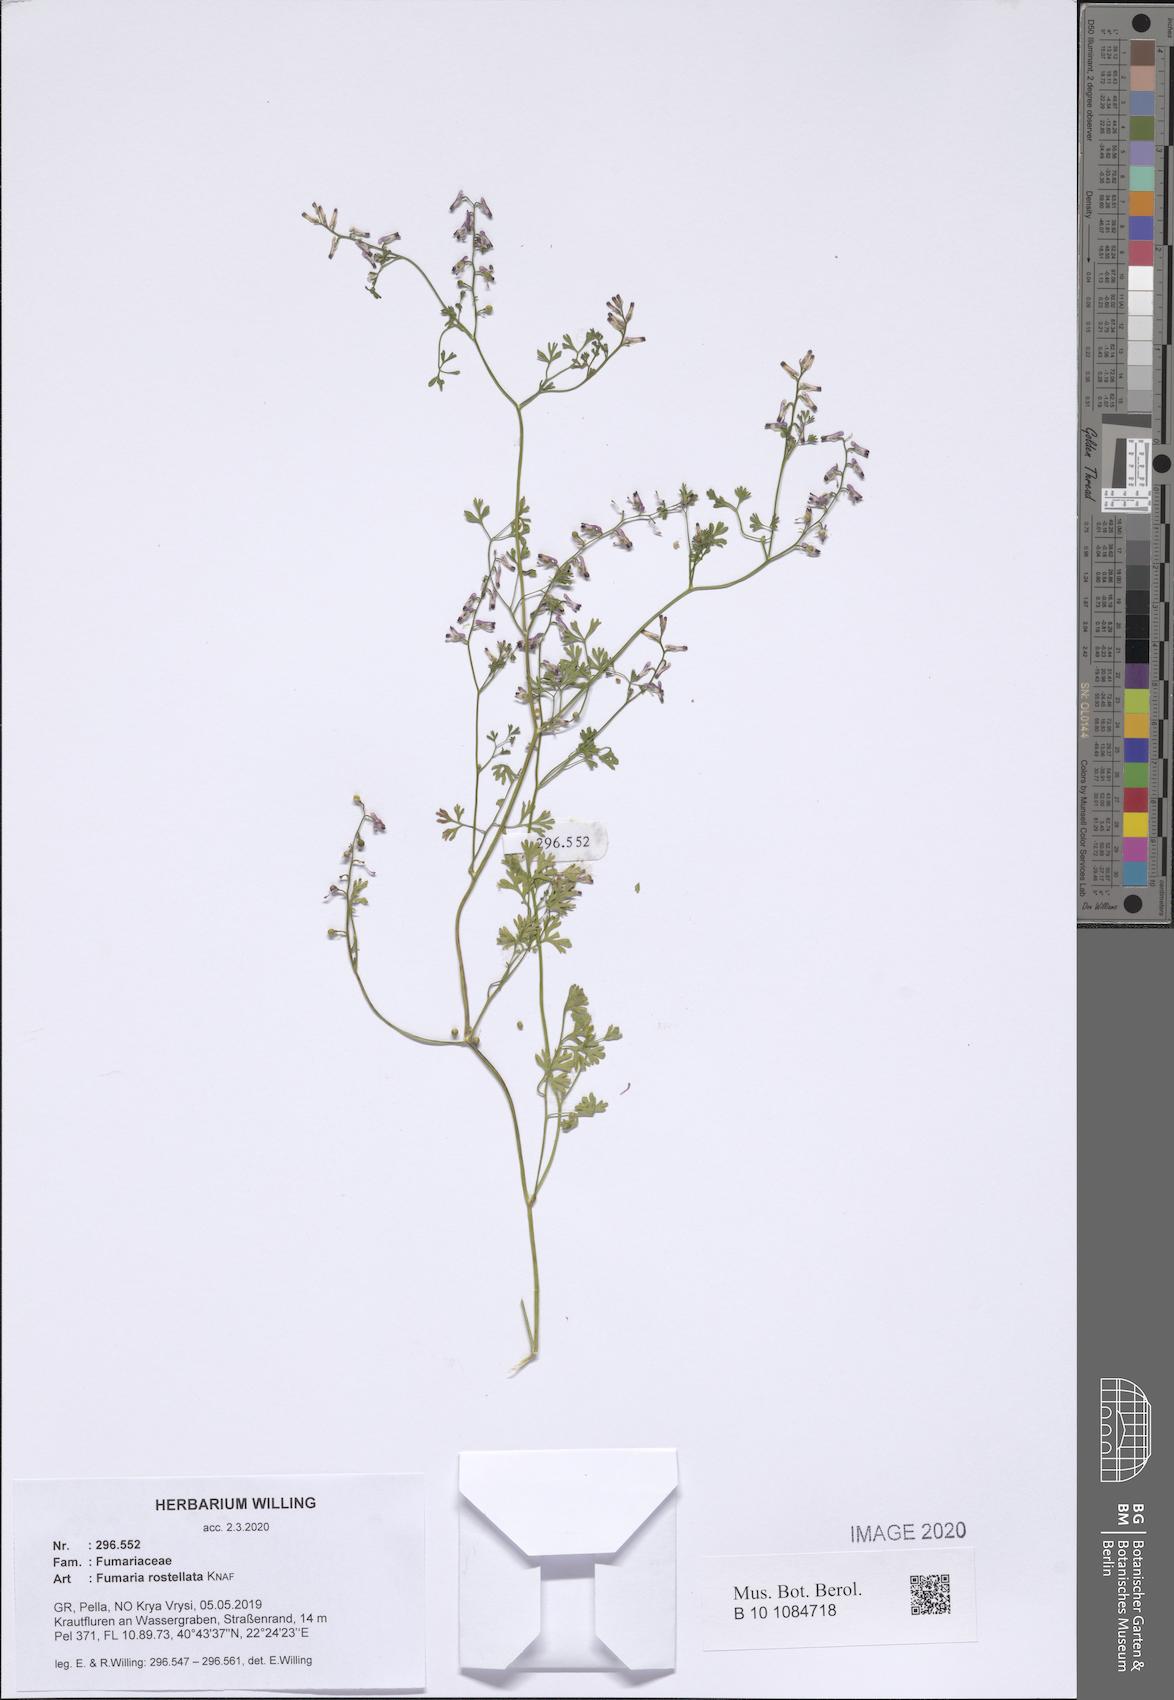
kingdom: Plantae
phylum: Tracheophyta
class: Magnoliopsida
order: Ranunculales
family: Papaveraceae
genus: Fumaria
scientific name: Fumaria rostellata
